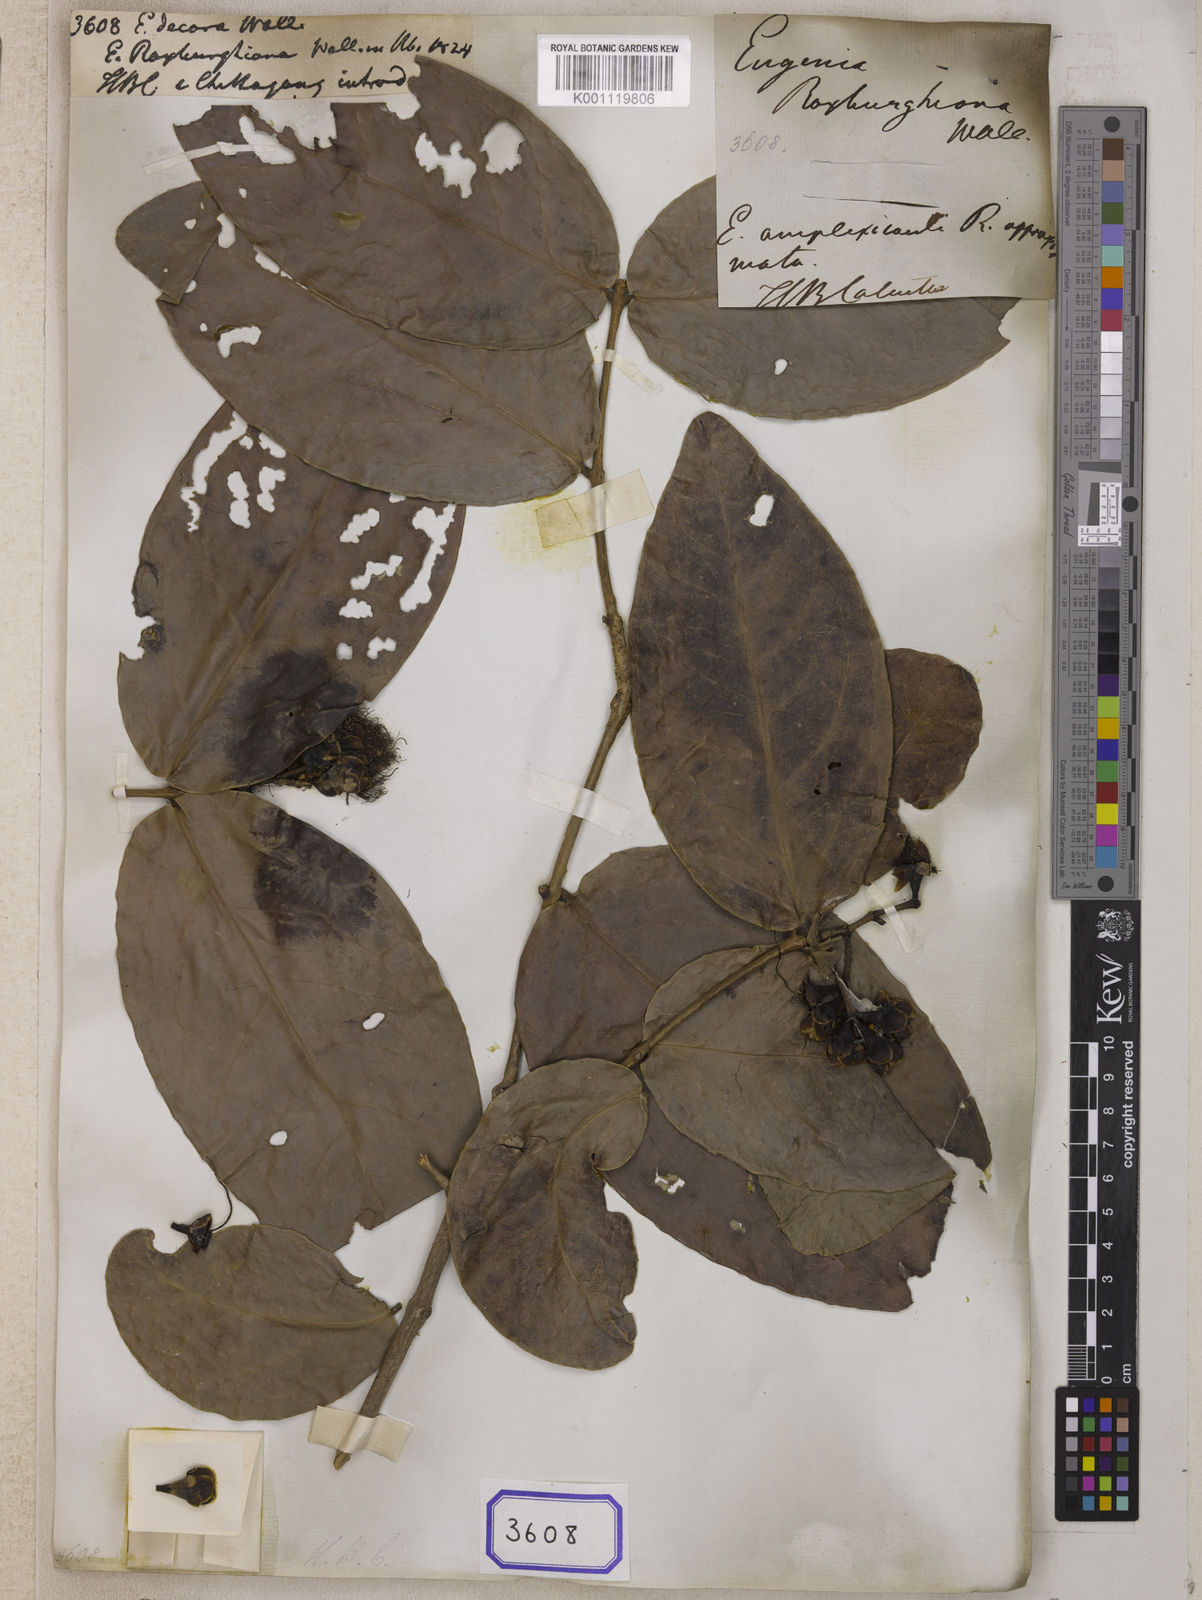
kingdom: Plantae
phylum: Tracheophyta
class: Magnoliopsida
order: Myrtales
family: Myrtaceae
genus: Eugenia
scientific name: Eugenia
